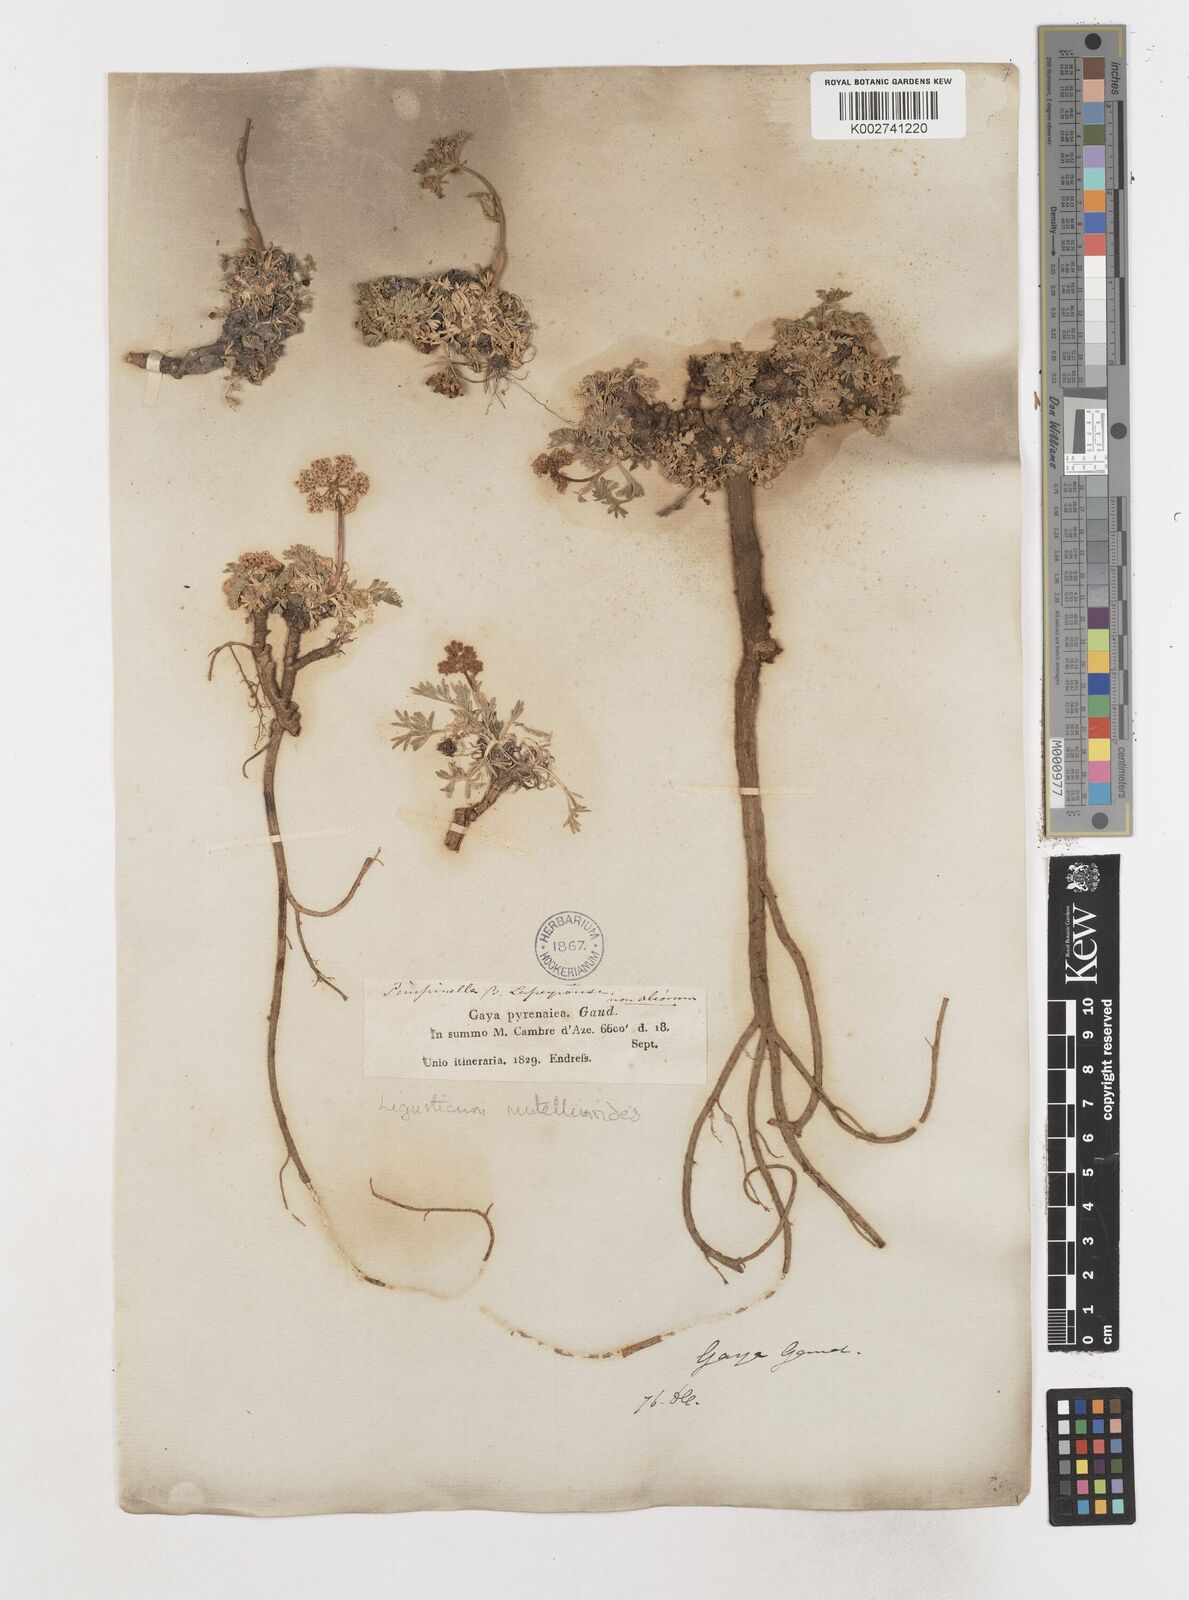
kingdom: Plantae
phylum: Tracheophyta
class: Magnoliopsida
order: Apiales
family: Apiaceae
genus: Pachypleurum
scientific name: Pachypleurum mutellinoides
